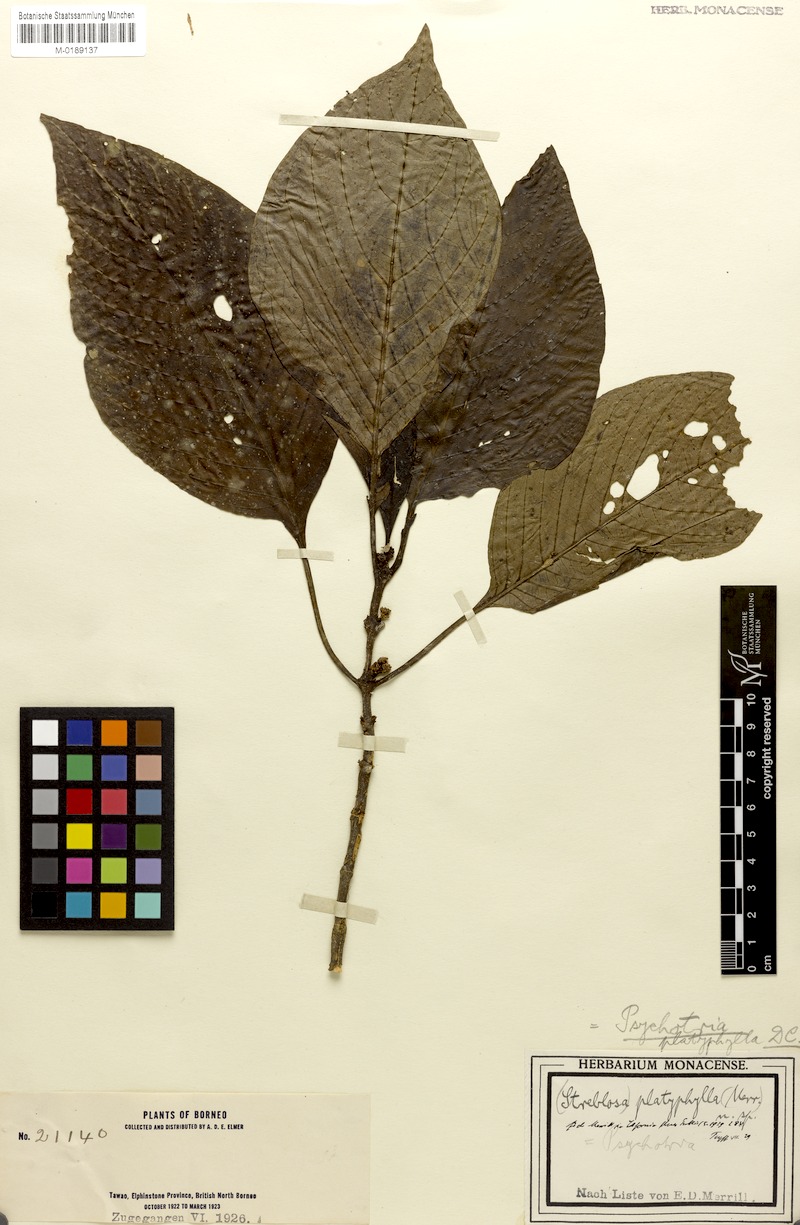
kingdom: Plantae
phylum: Tracheophyta
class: Magnoliopsida
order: Gentianales
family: Rubiaceae
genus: Streblosa
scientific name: Streblosa glabrata
